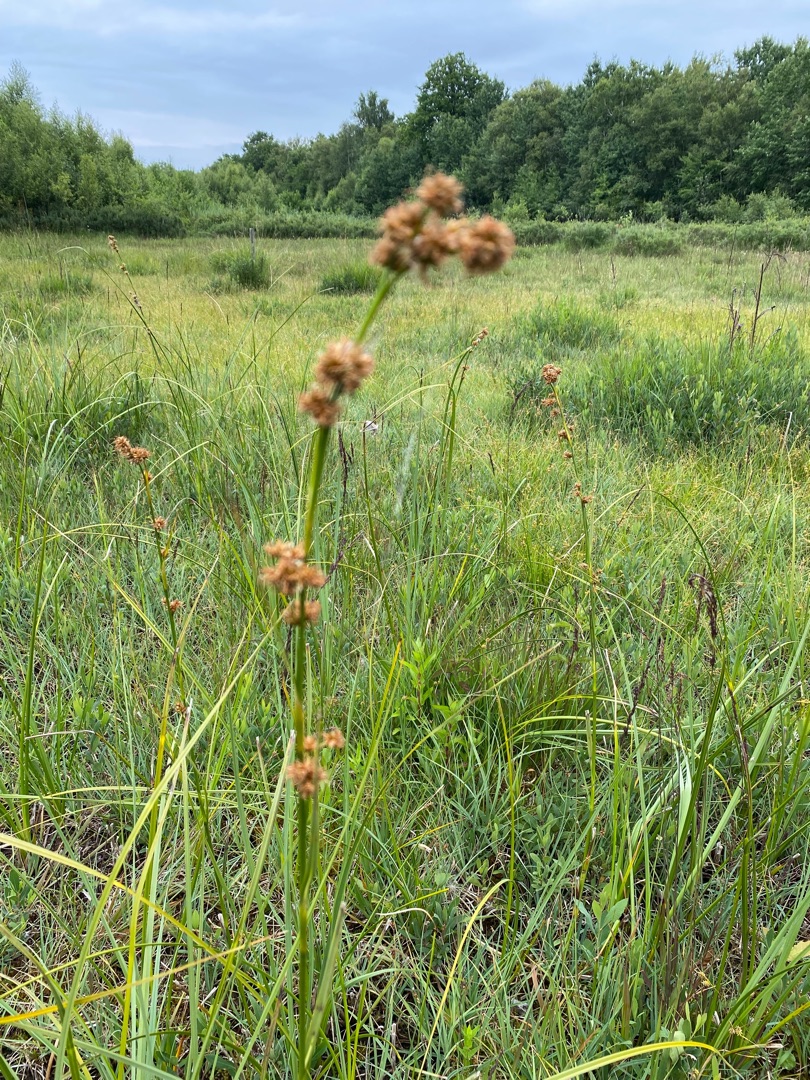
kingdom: Plantae
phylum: Tracheophyta
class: Liliopsida
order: Poales
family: Cyperaceae
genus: Cladium
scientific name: Cladium mariscus
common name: Hvas avneknippe
